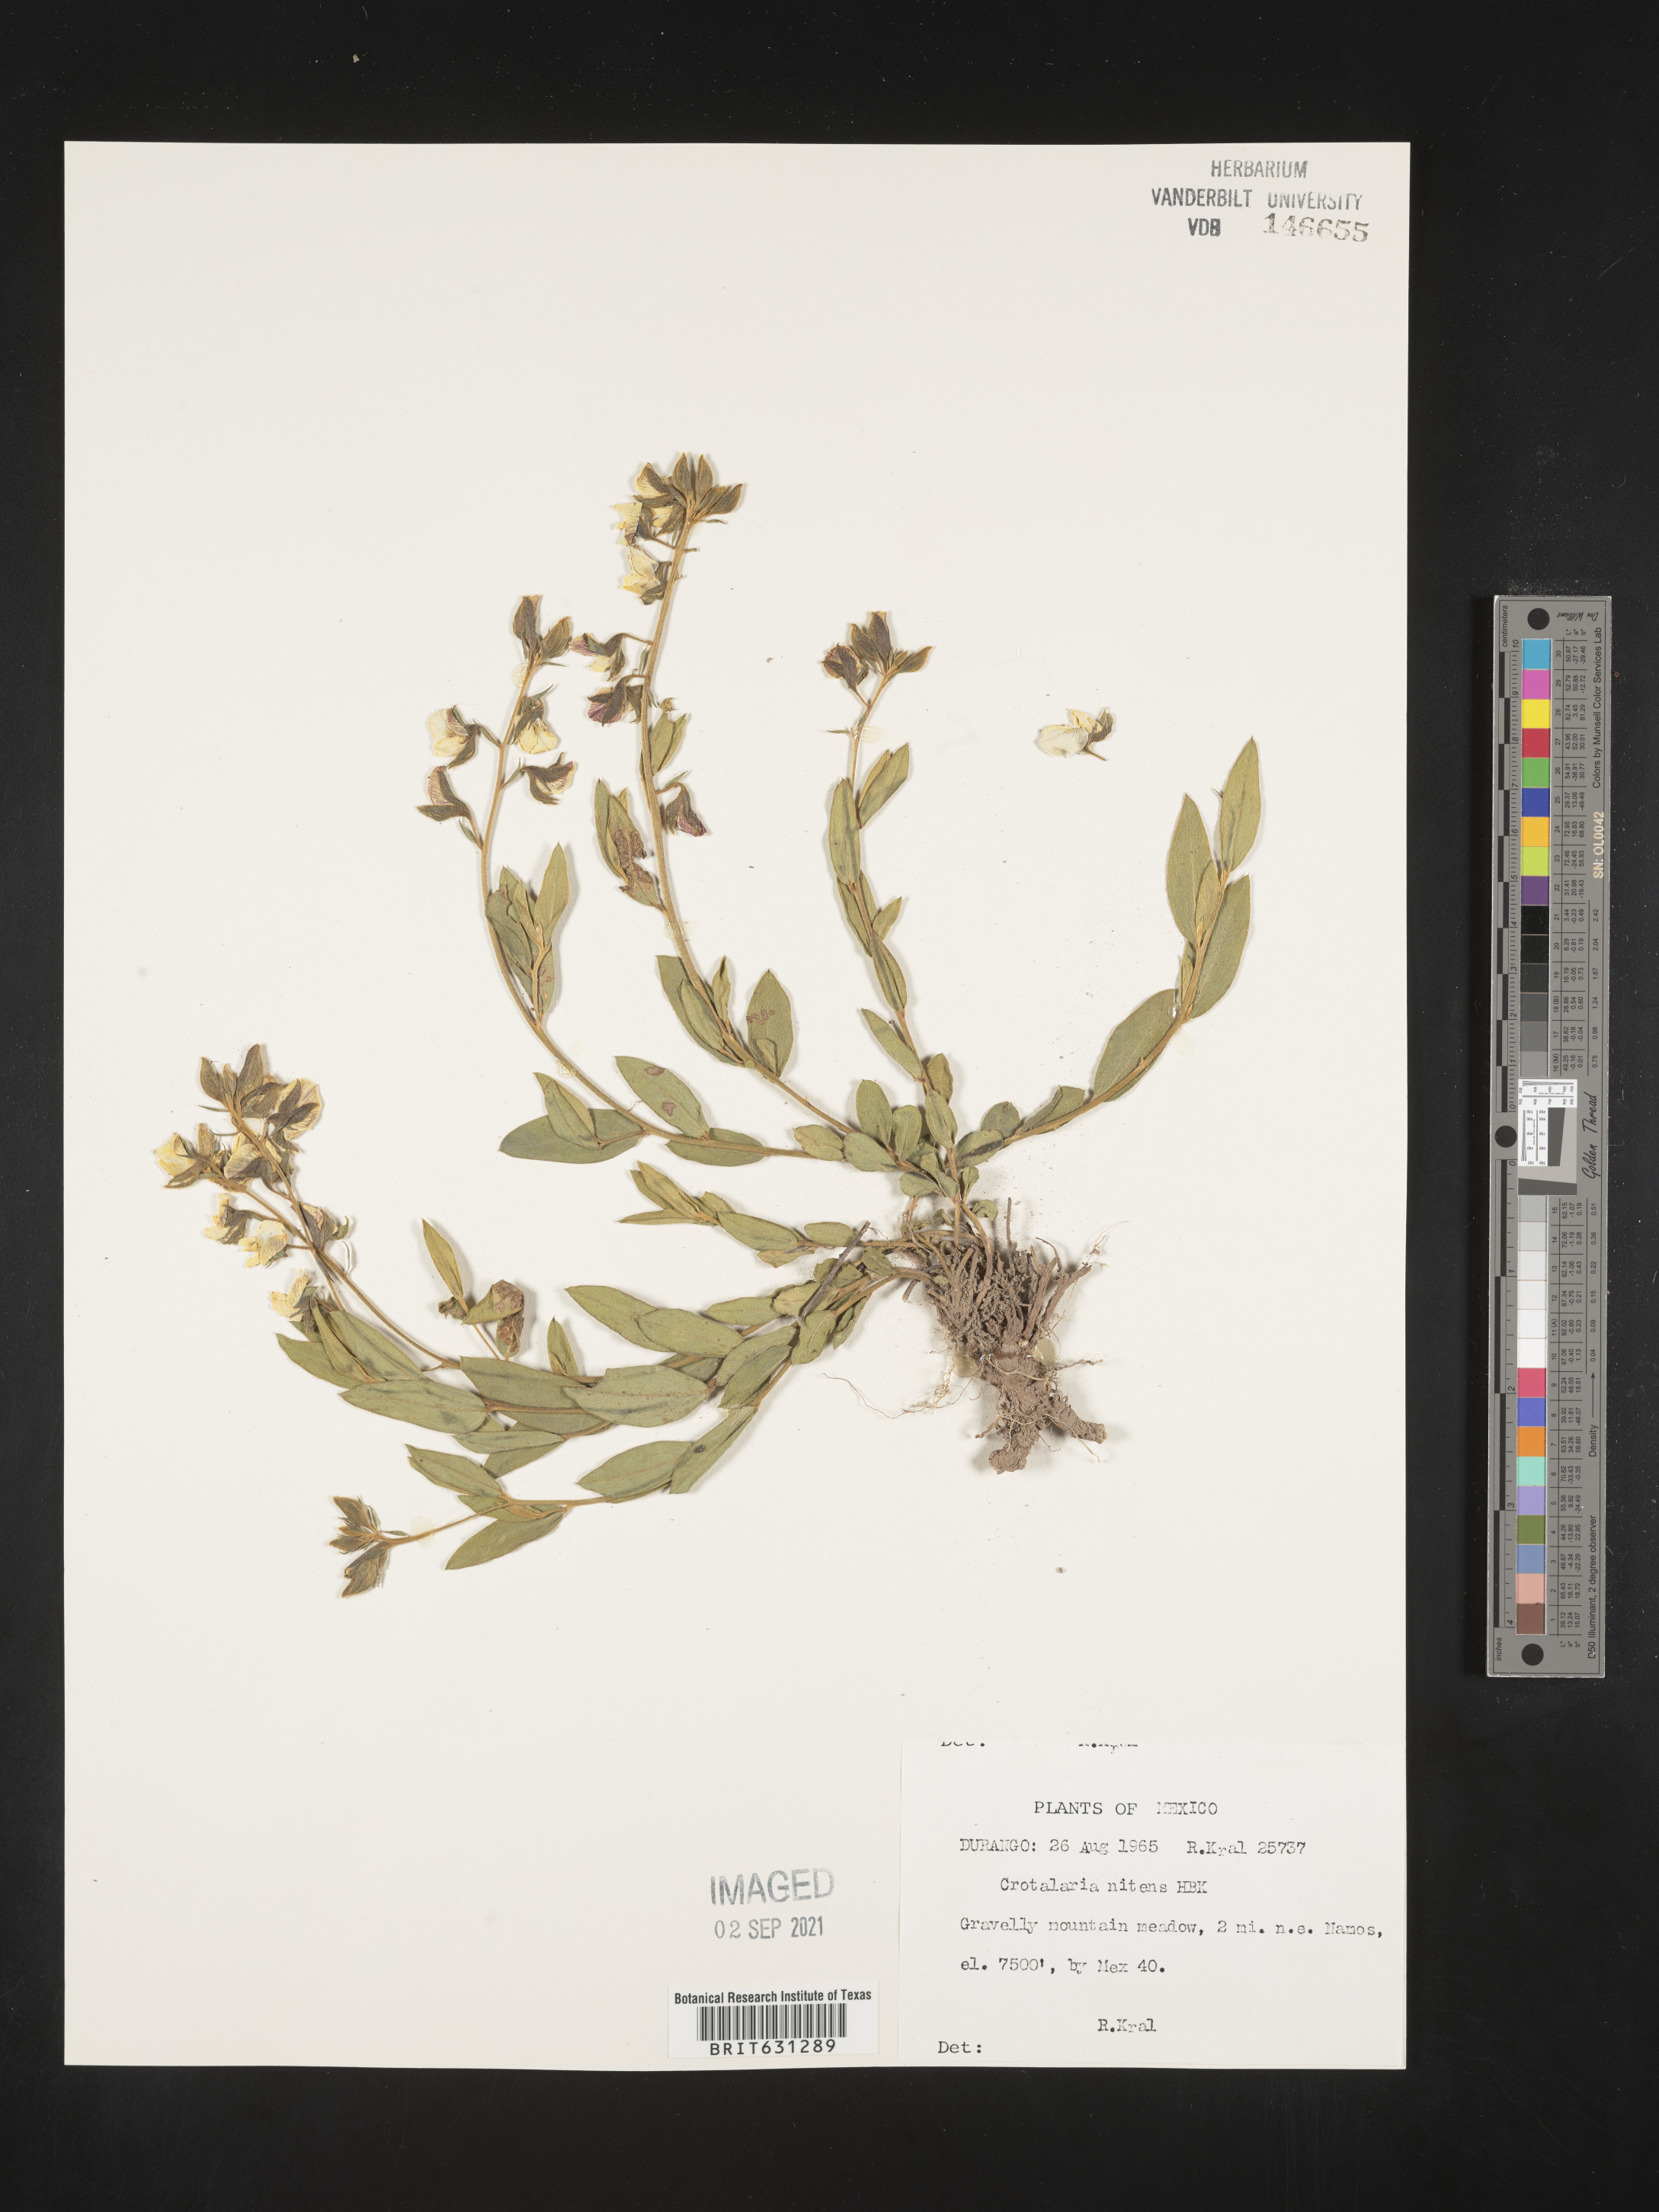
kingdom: Plantae
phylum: Tracheophyta
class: Magnoliopsida
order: Fabales
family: Fabaceae
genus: Crotalaria
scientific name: Crotalaria nitens
